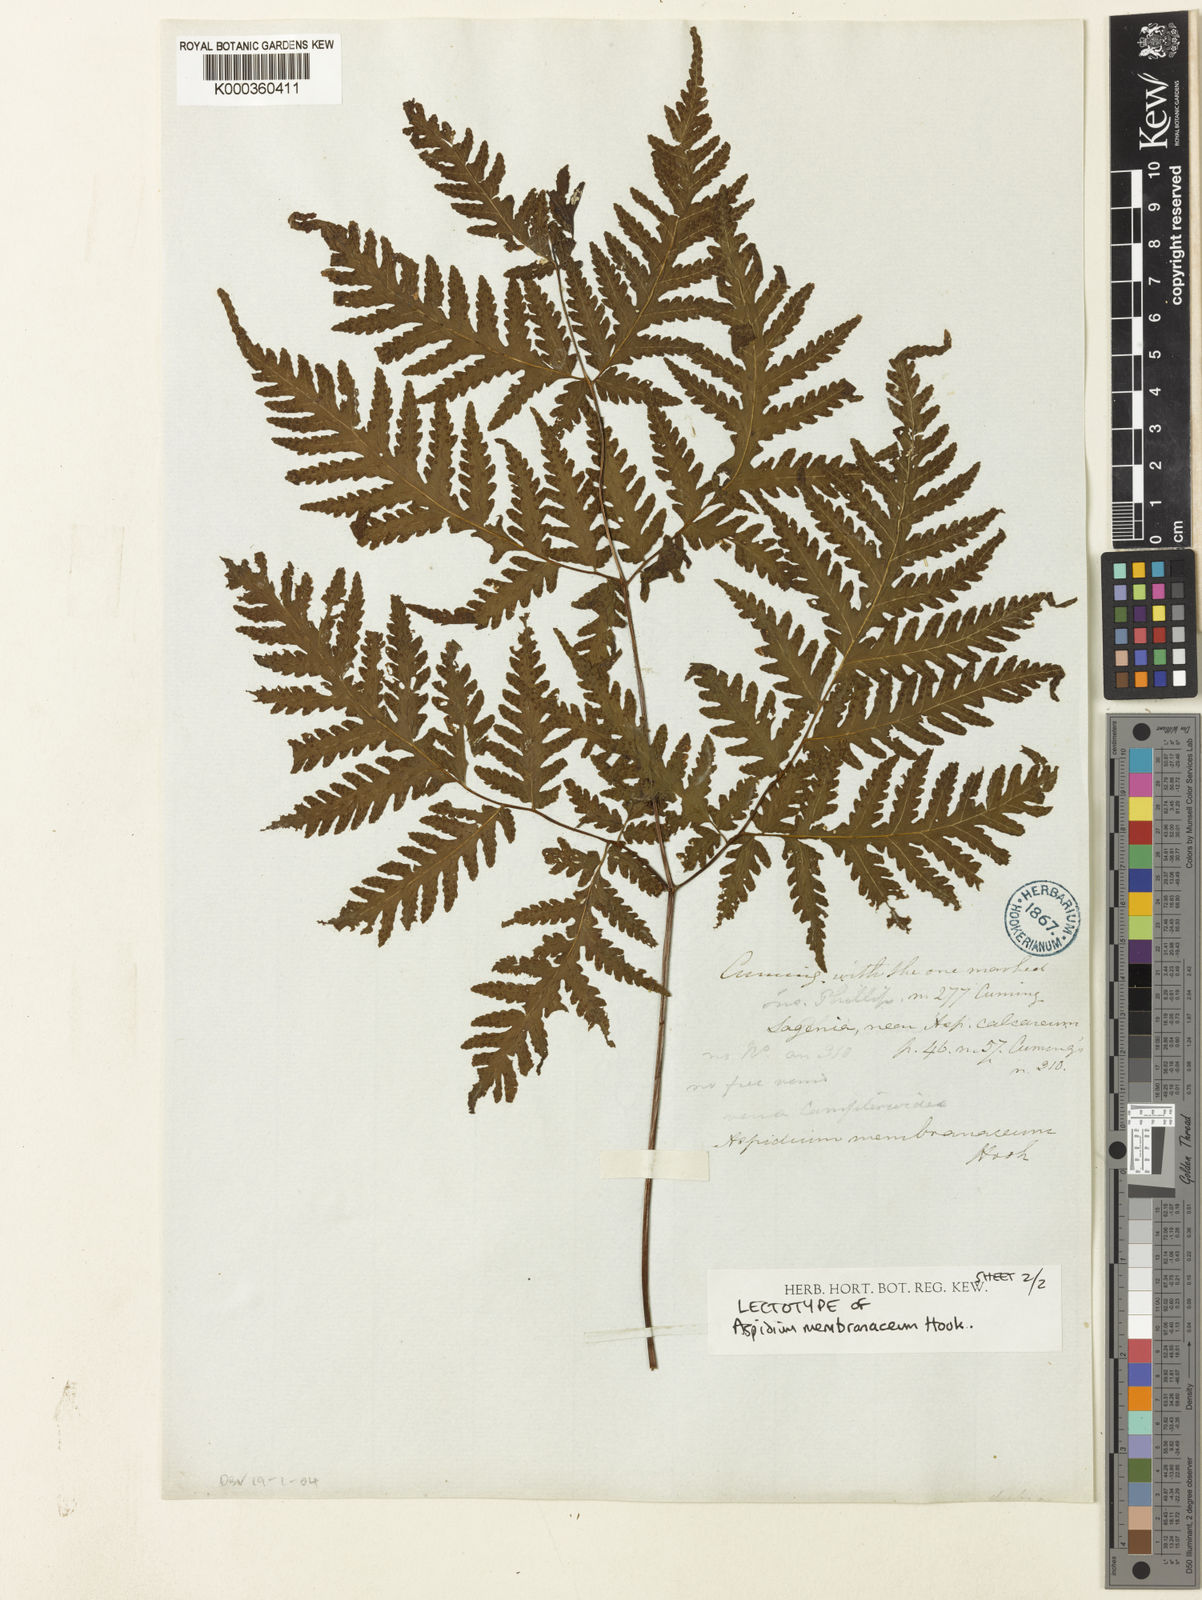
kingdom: Plantae
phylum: Tracheophyta
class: Polypodiopsida
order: Polypodiales
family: Tectariaceae
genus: Tectaria
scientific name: Tectaria membranacea
